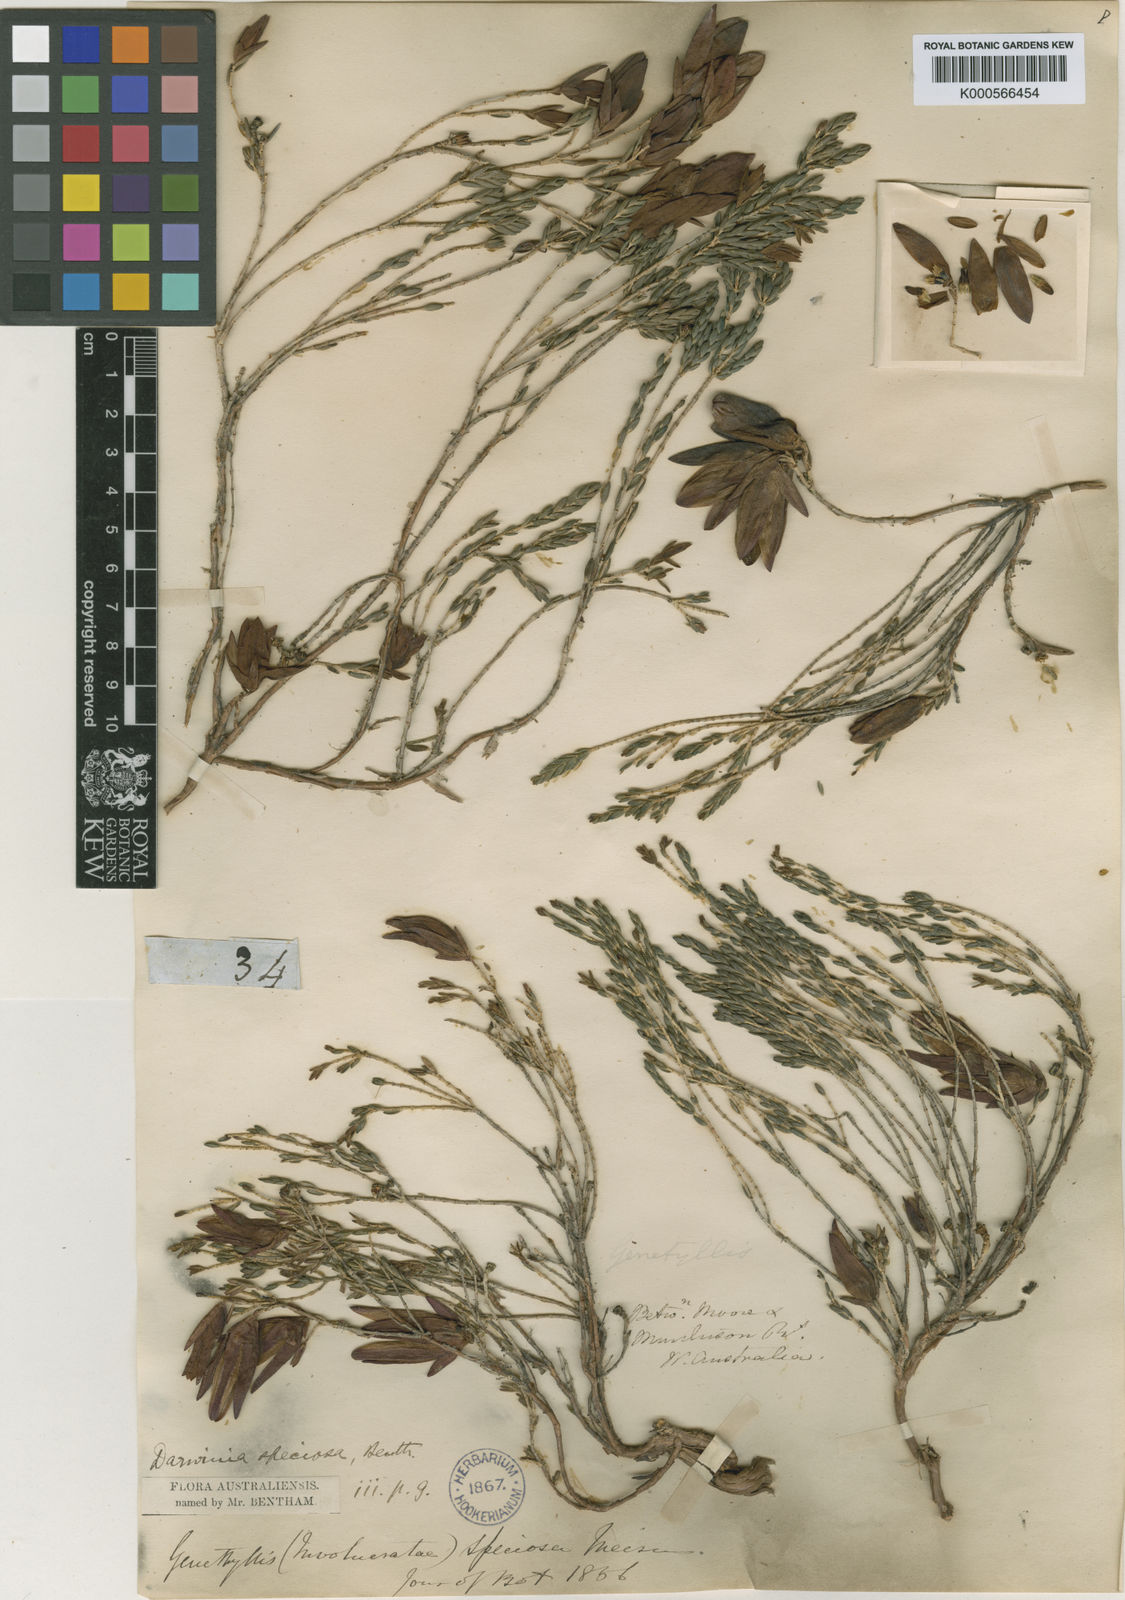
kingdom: Plantae
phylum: Tracheophyta
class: Magnoliopsida
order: Myrtales
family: Myrtaceae
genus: Darwinia
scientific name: Darwinia speciosa
